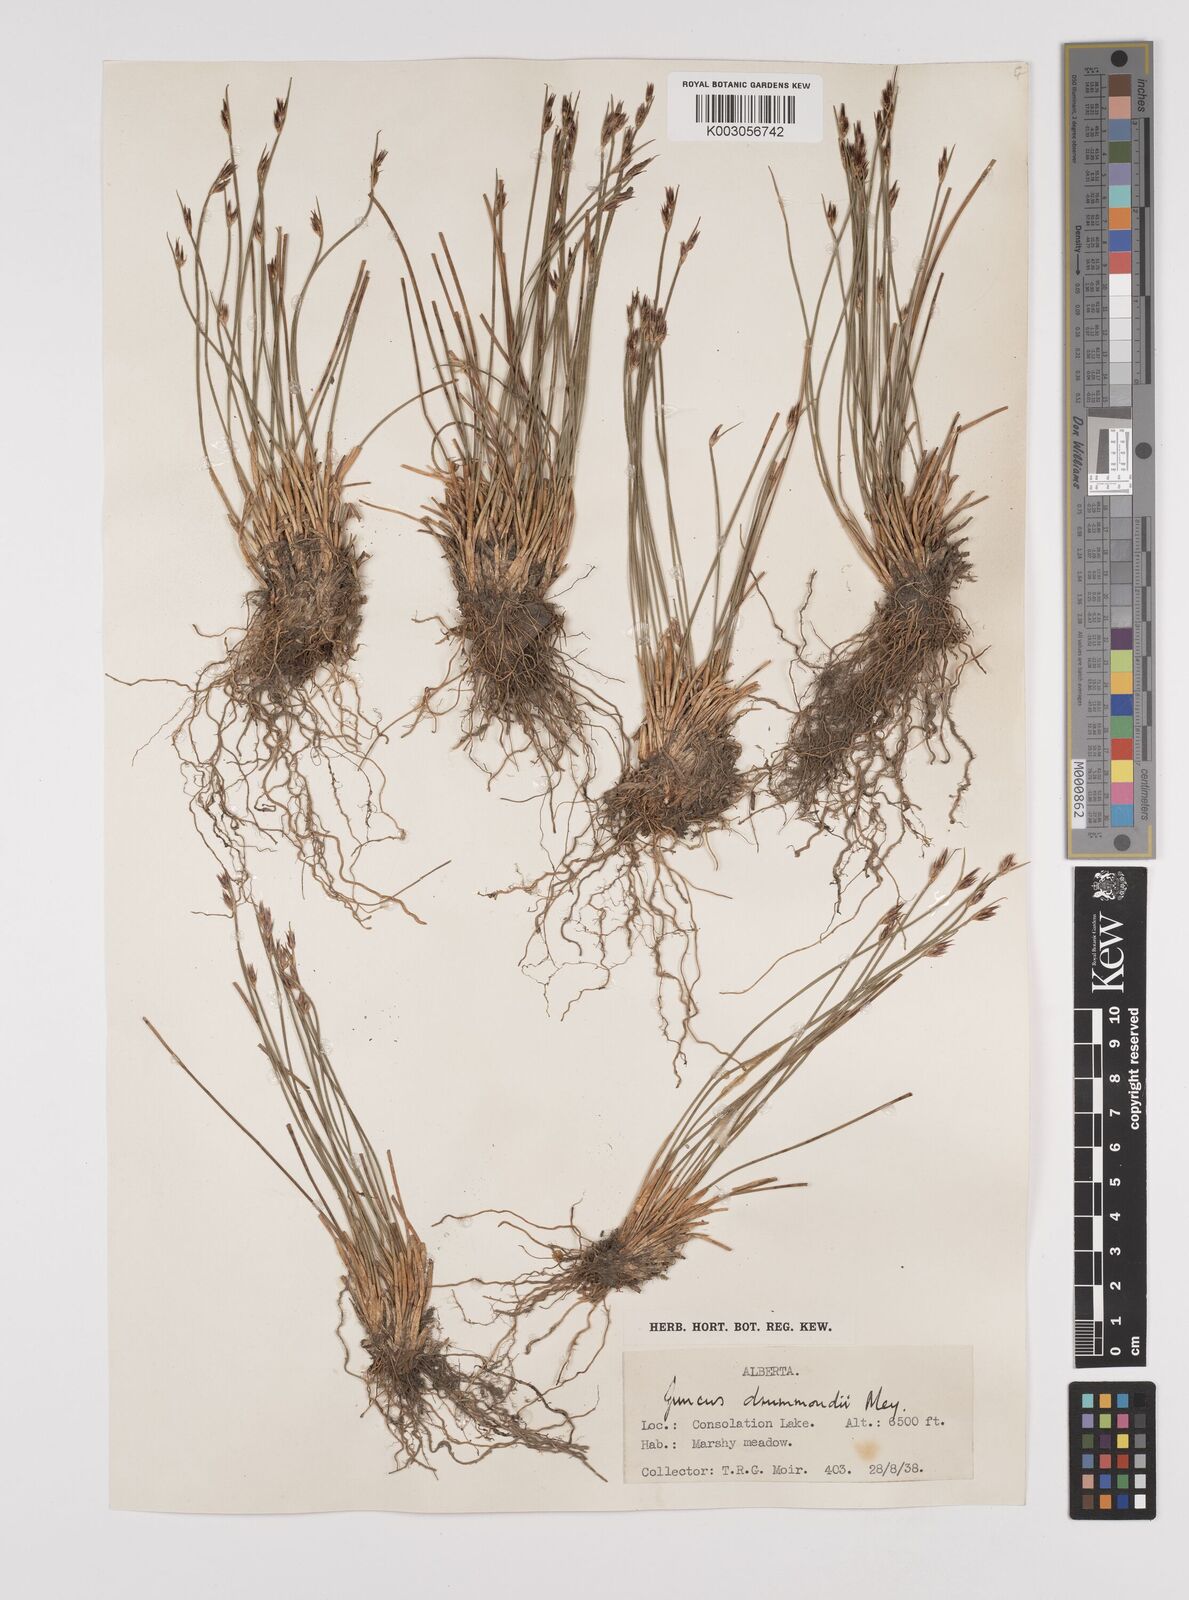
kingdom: Plantae
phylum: Tracheophyta
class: Liliopsida
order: Poales
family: Juncaceae
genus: Juncus
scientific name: Juncus drummondii
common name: Drummond's rush
